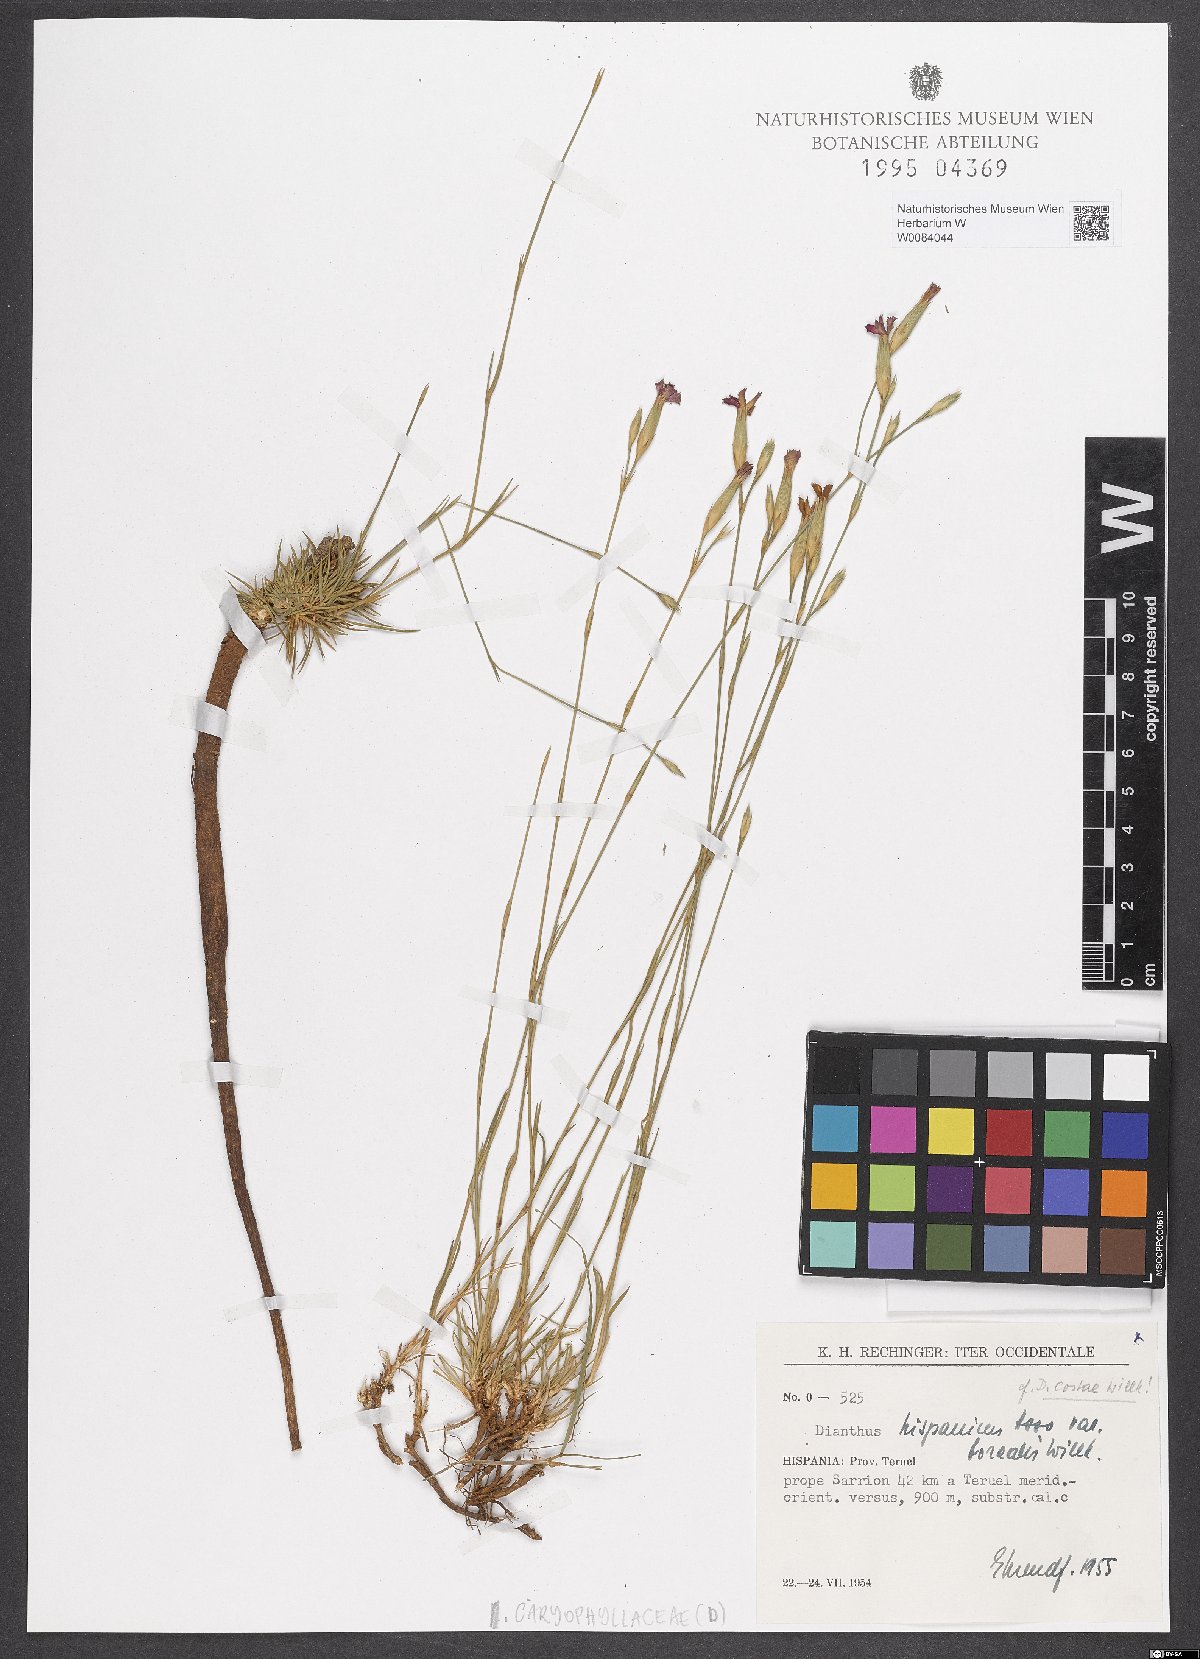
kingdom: Plantae
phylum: Tracheophyta
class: Magnoliopsida
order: Caryophyllales
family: Caryophyllaceae
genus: Dianthus
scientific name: Dianthus pungens
